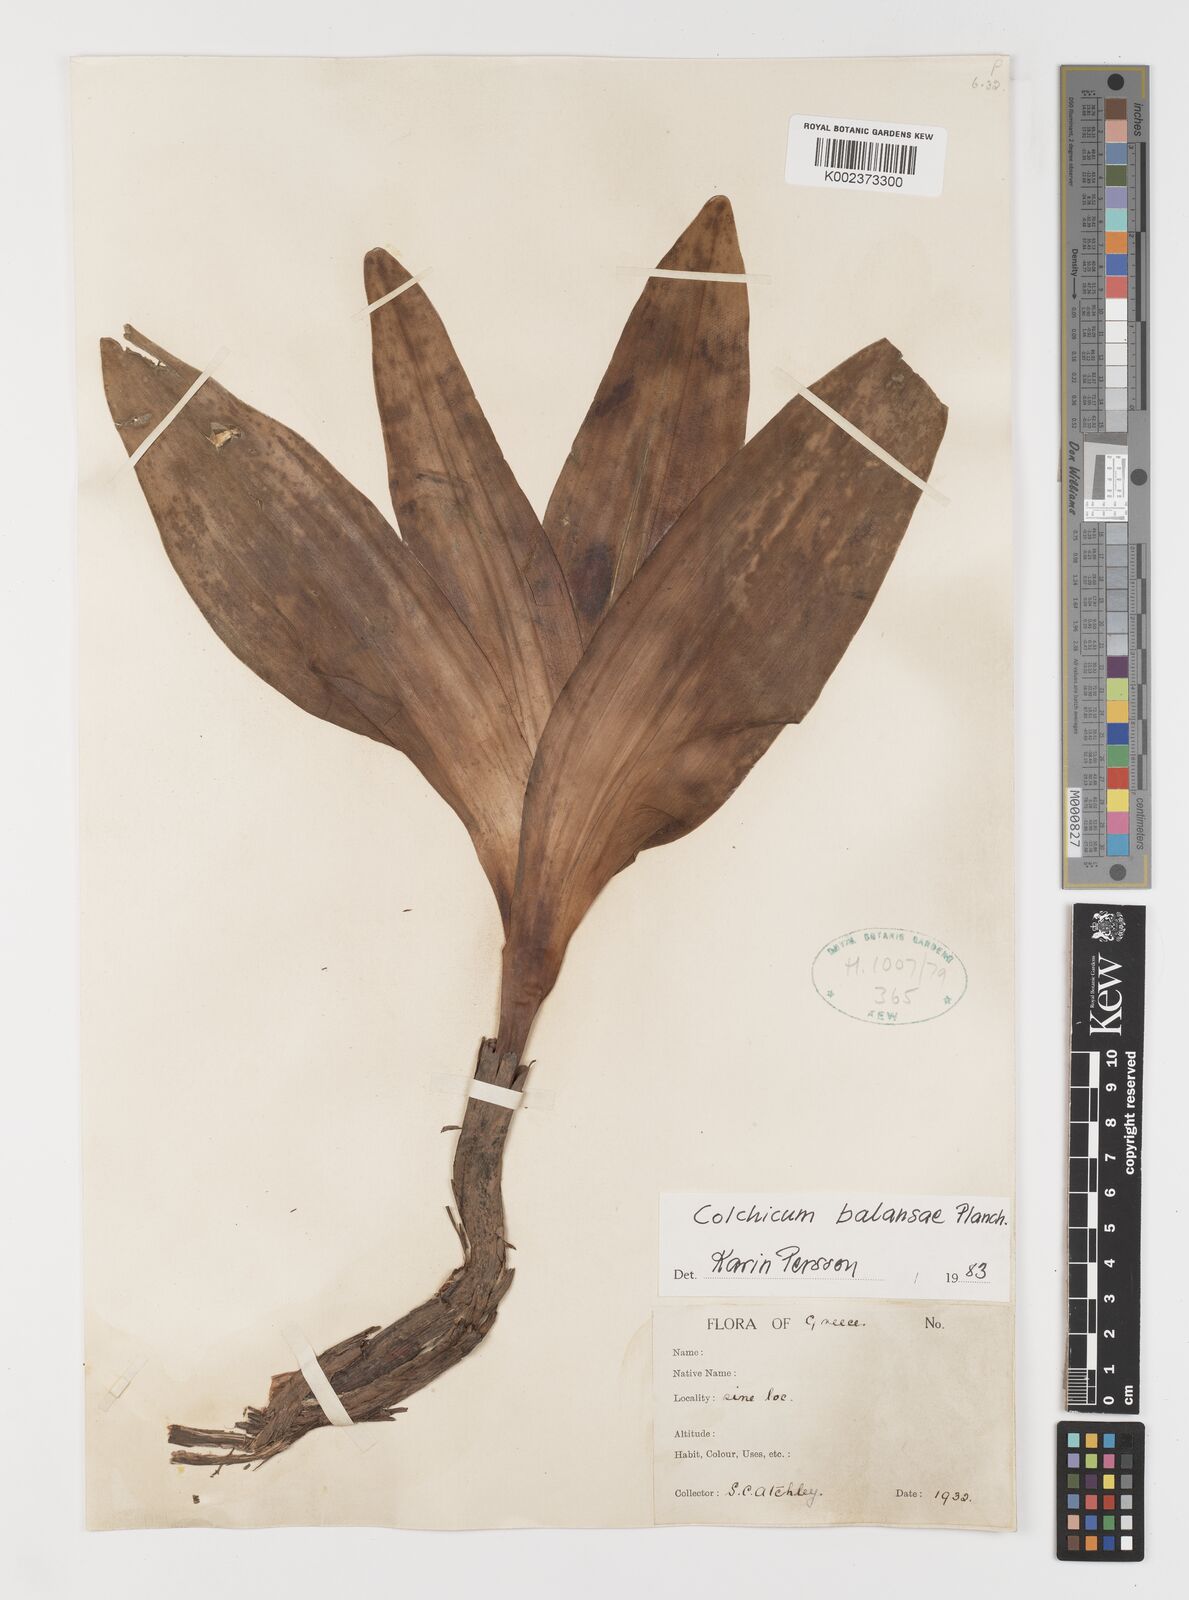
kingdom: Plantae
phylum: Tracheophyta
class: Liliopsida
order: Liliales
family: Colchicaceae
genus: Colchicum
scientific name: Colchicum balansae
